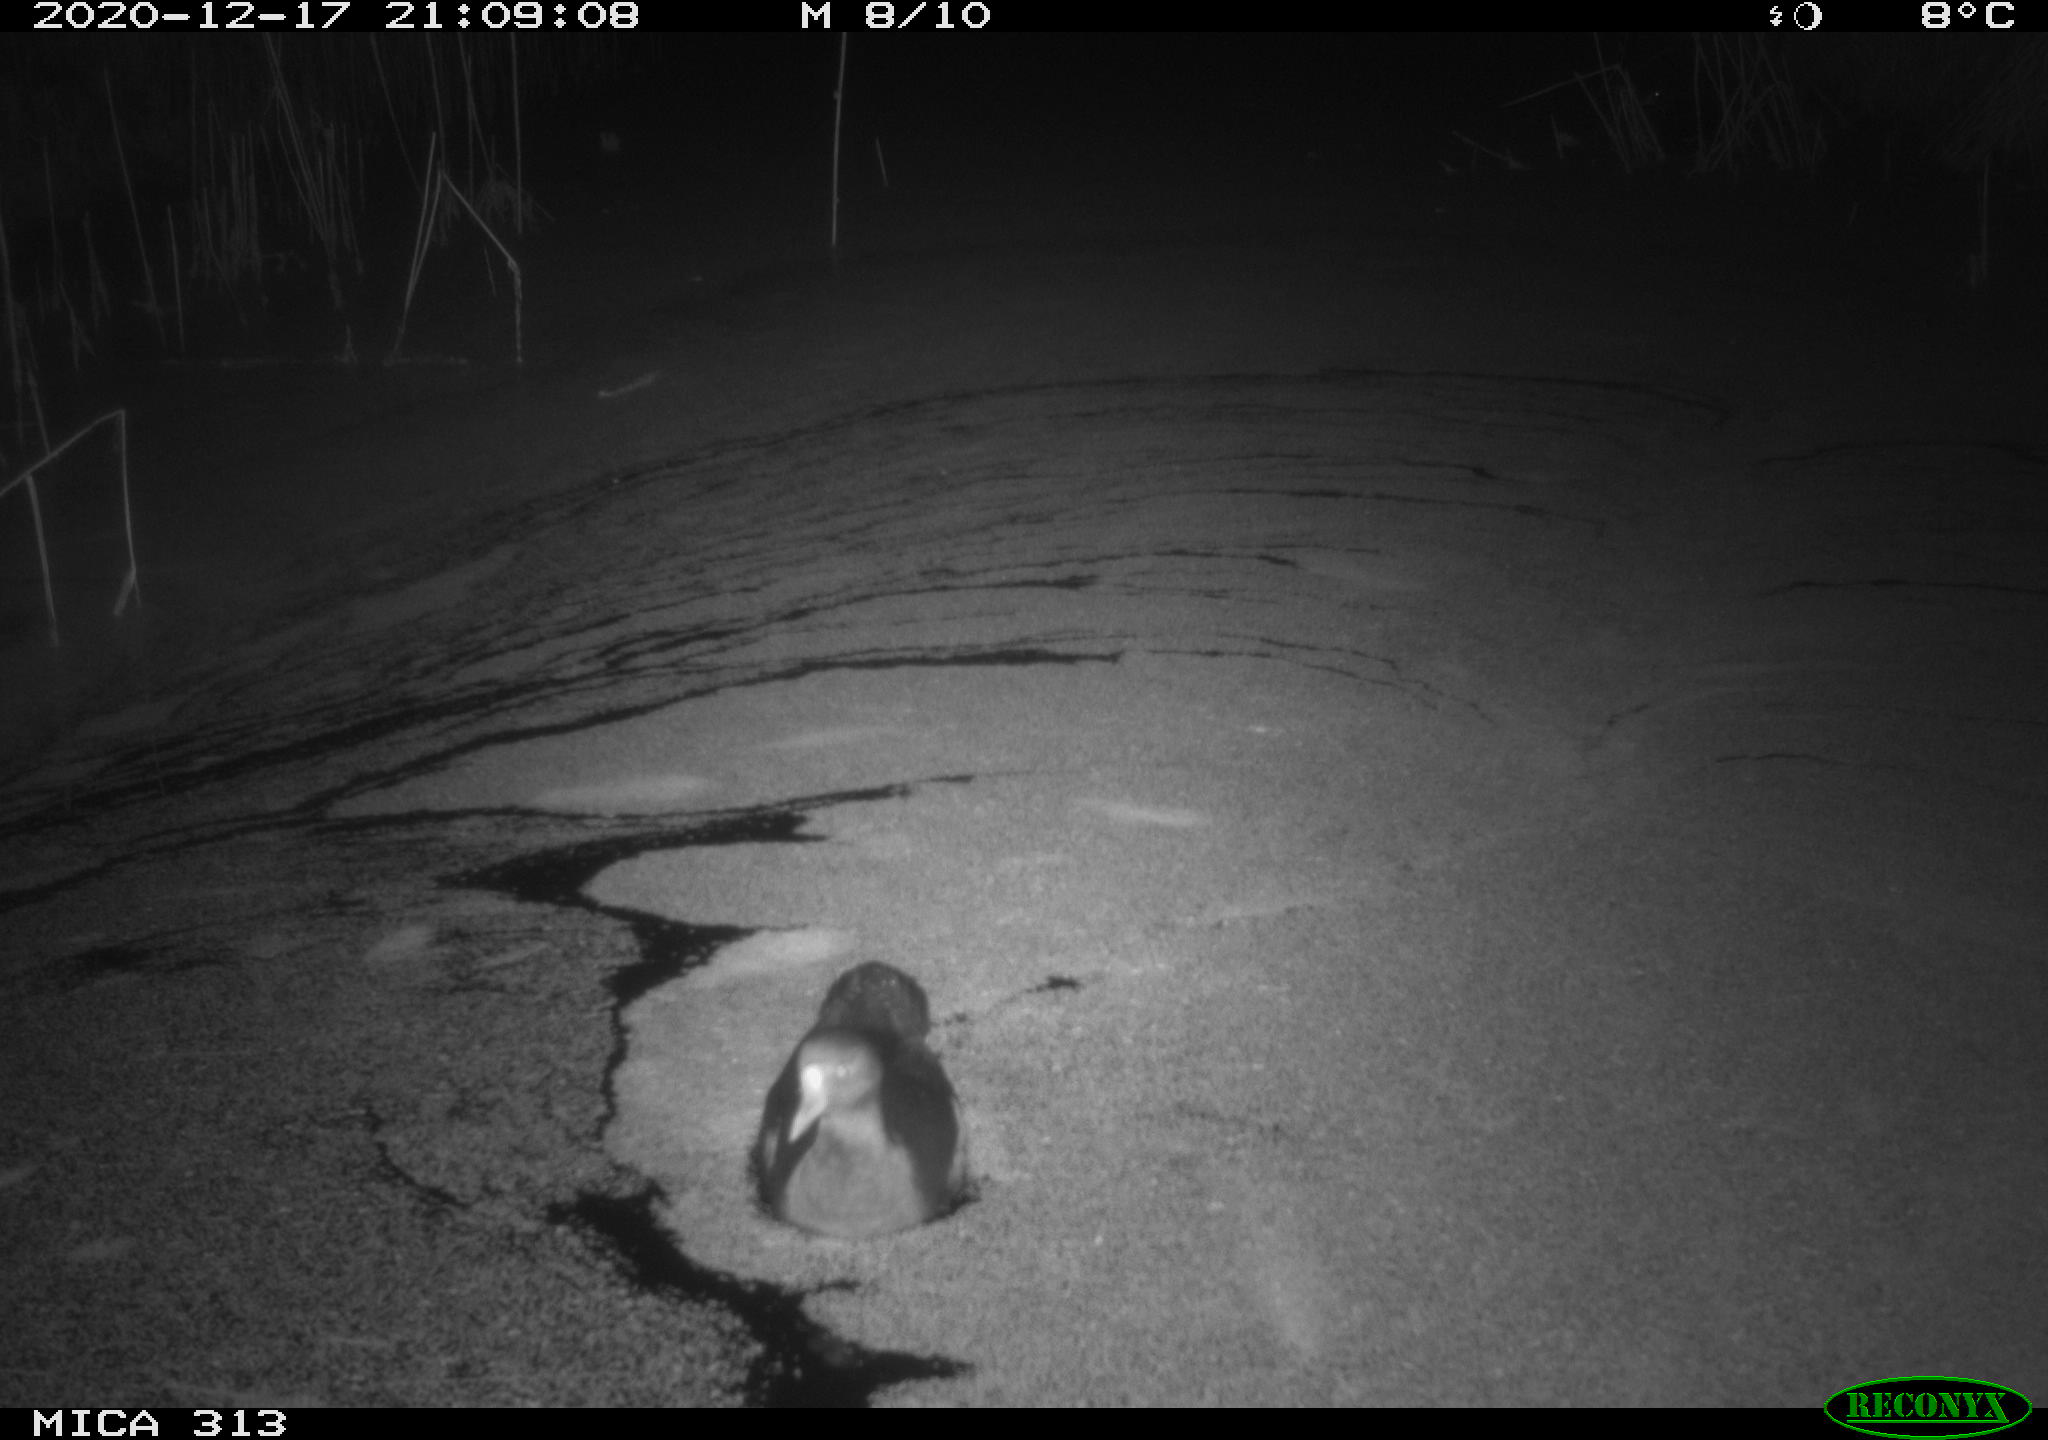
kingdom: Animalia
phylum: Chordata
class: Aves
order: Gruiformes
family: Rallidae
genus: Fulica
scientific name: Fulica atra
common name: Eurasian coot
